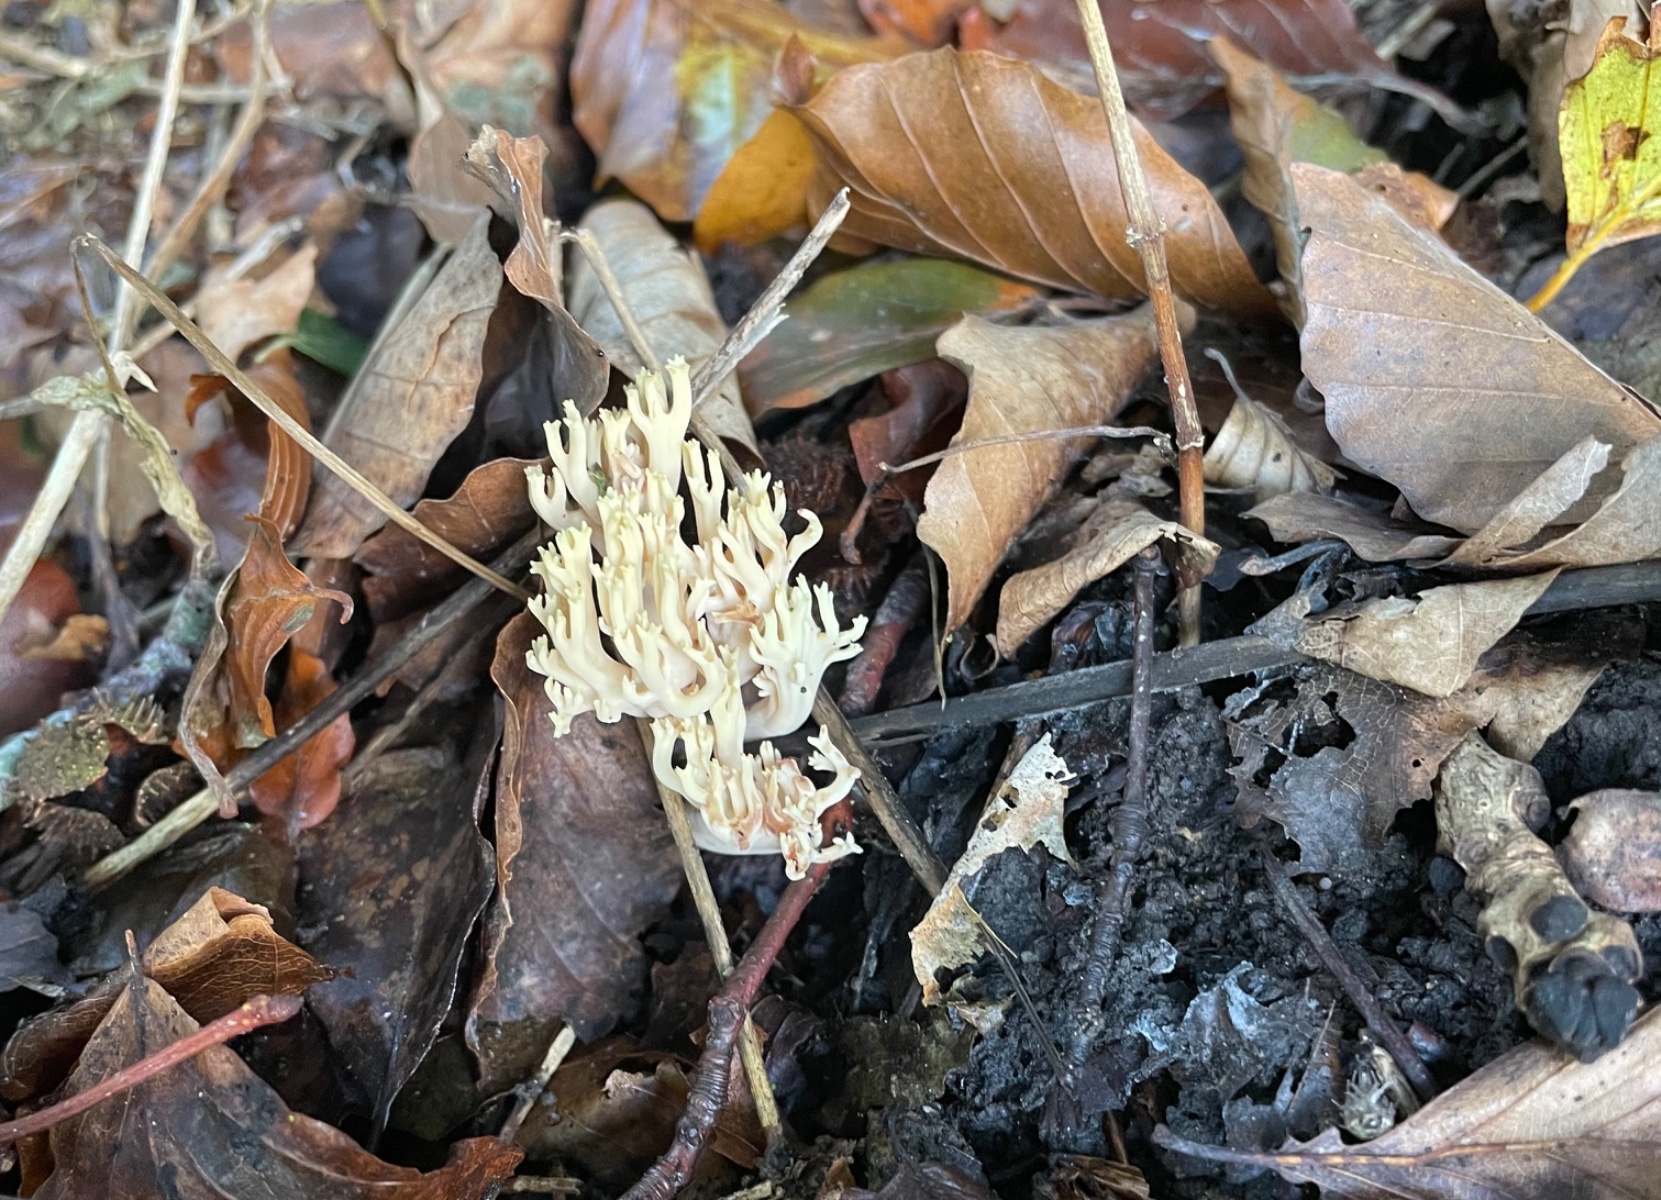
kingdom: Fungi
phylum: Basidiomycota
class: Agaricomycetes
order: Gomphales
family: Gomphaceae
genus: Ramaria
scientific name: Ramaria stricta
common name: rank koralsvamp
